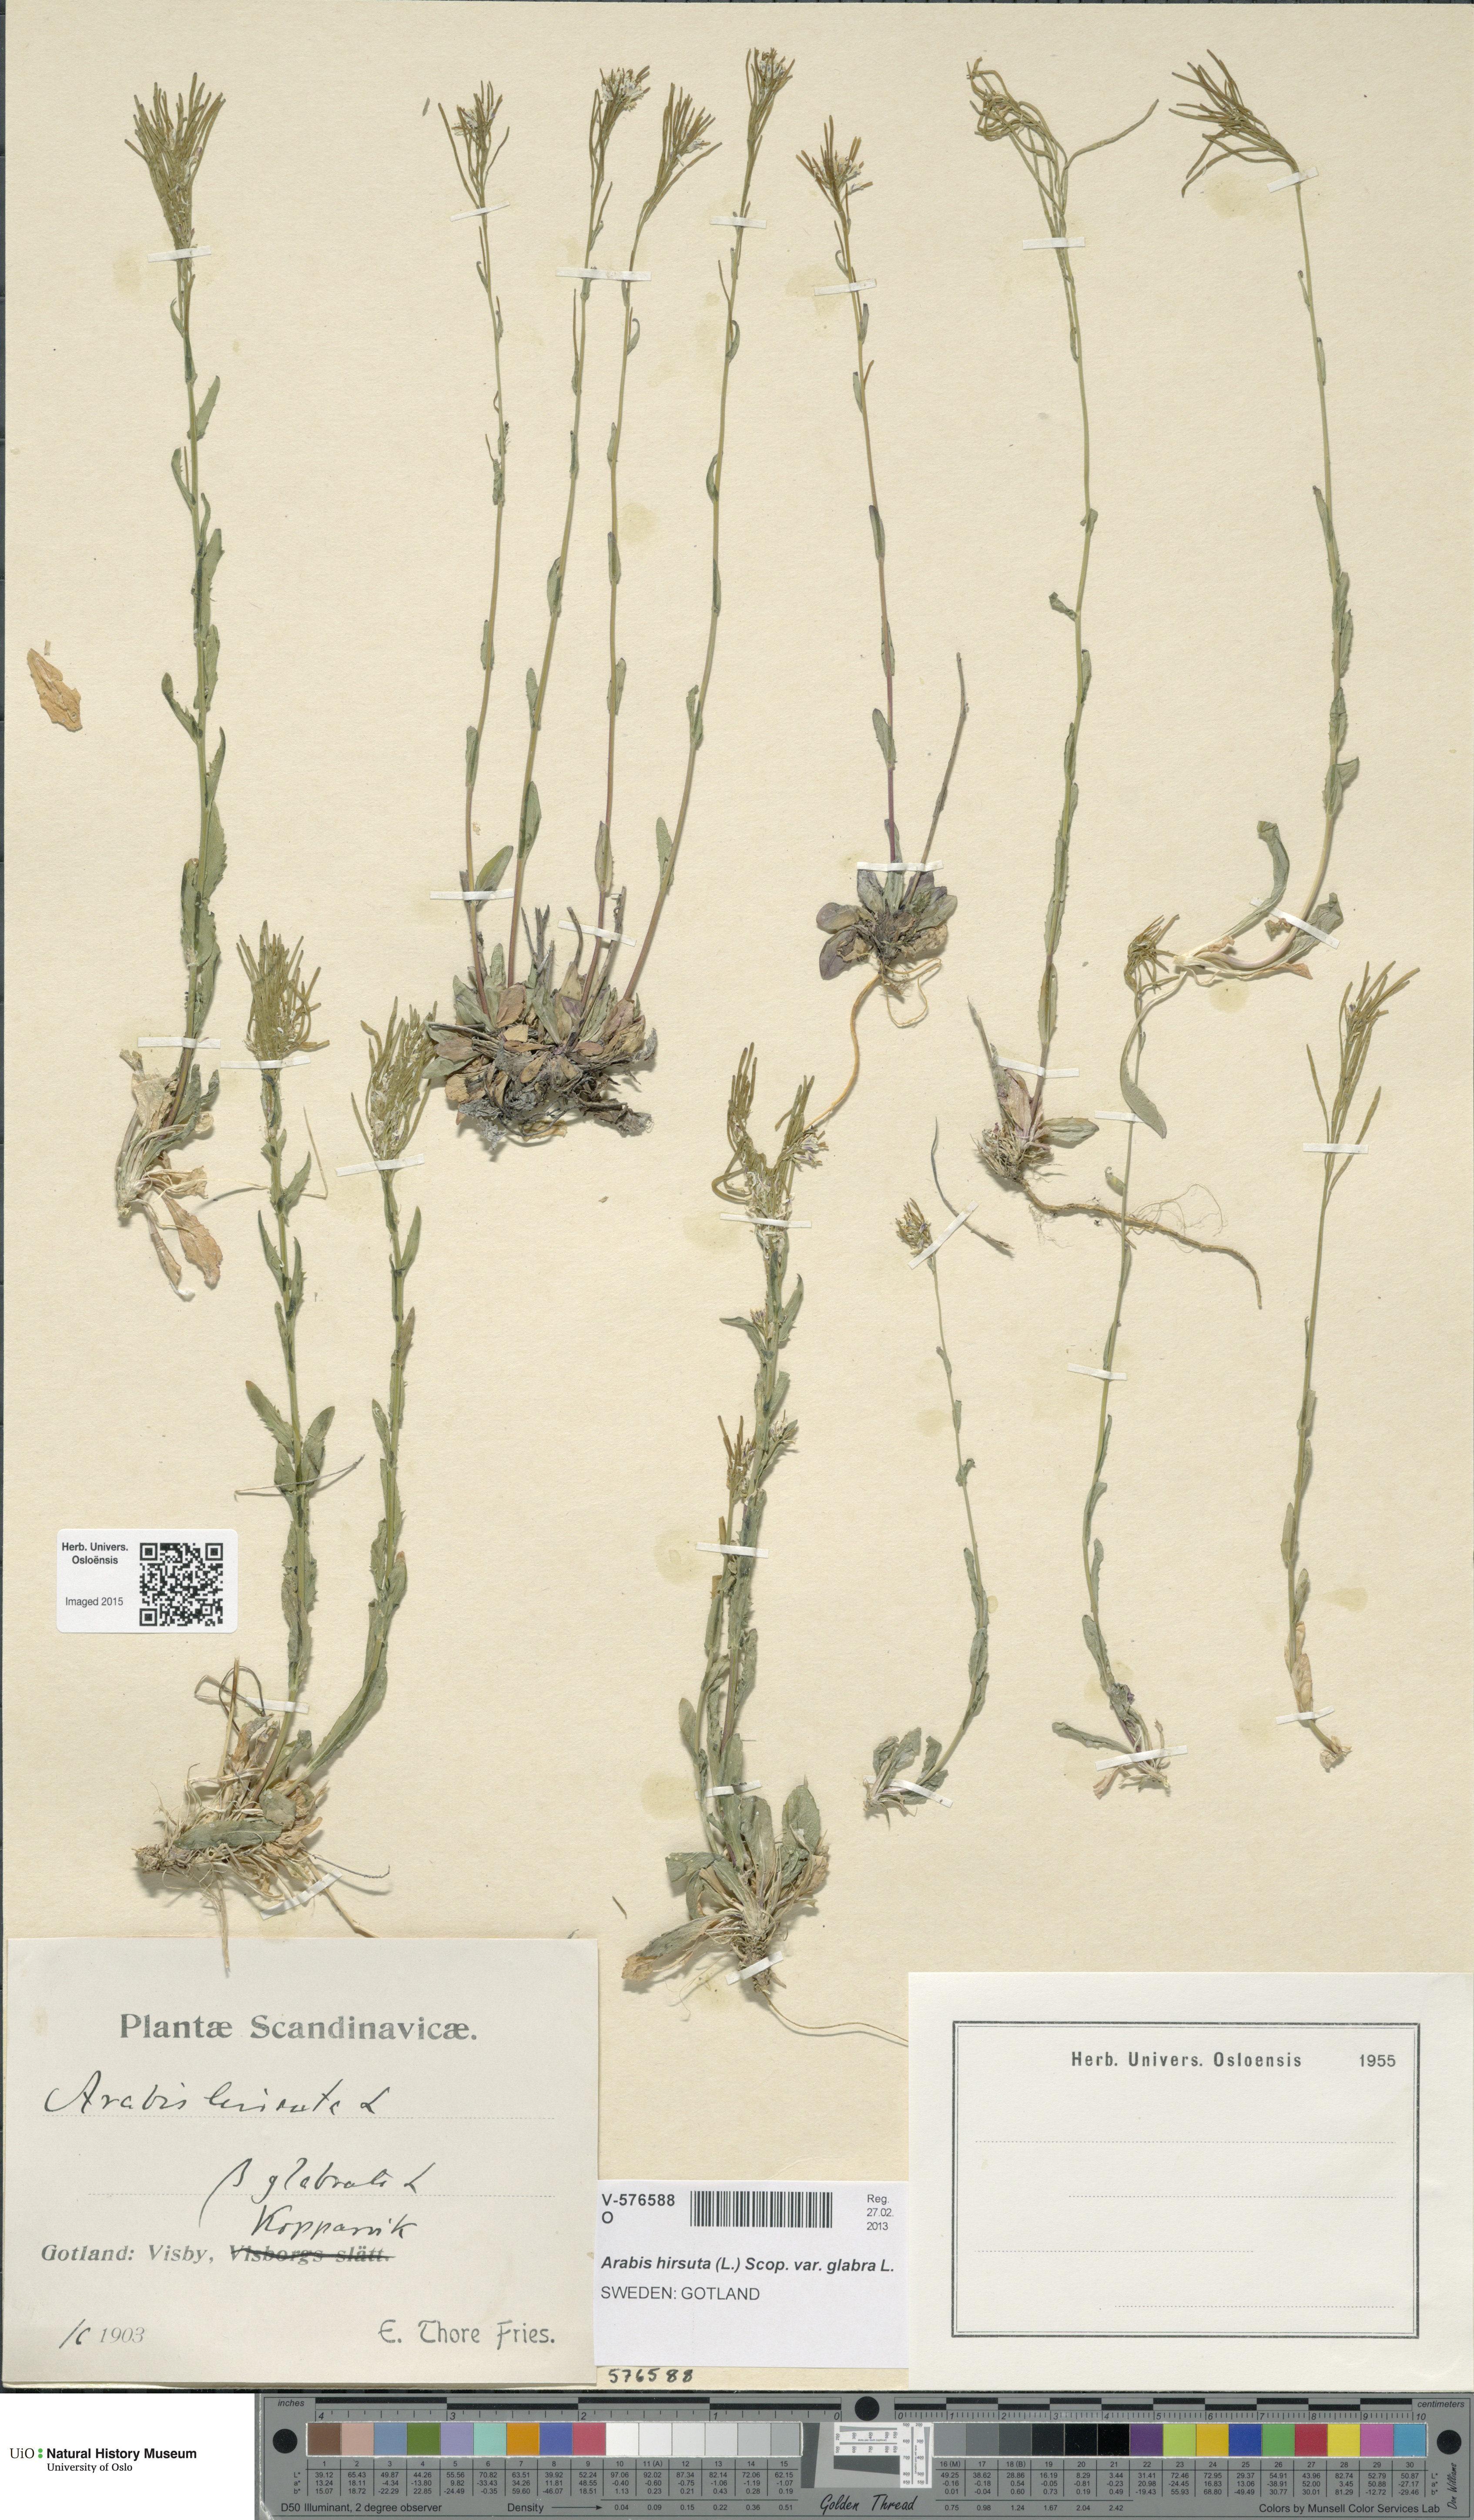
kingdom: Plantae
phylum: Tracheophyta
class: Magnoliopsida
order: Brassicales
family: Brassicaceae
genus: Arabis
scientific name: Arabis hirsuta
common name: Hairy rock-cress
